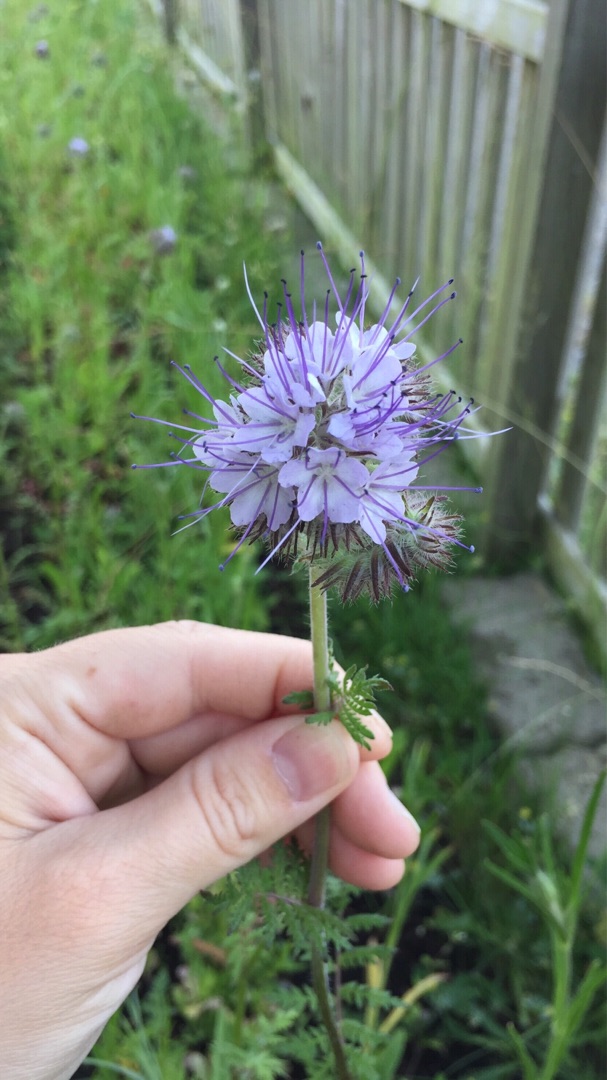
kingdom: Plantae
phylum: Tracheophyta
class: Magnoliopsida
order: Boraginales
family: Hydrophyllaceae
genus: Phacelia
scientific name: Phacelia tanacetifolia
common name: Honningurt
